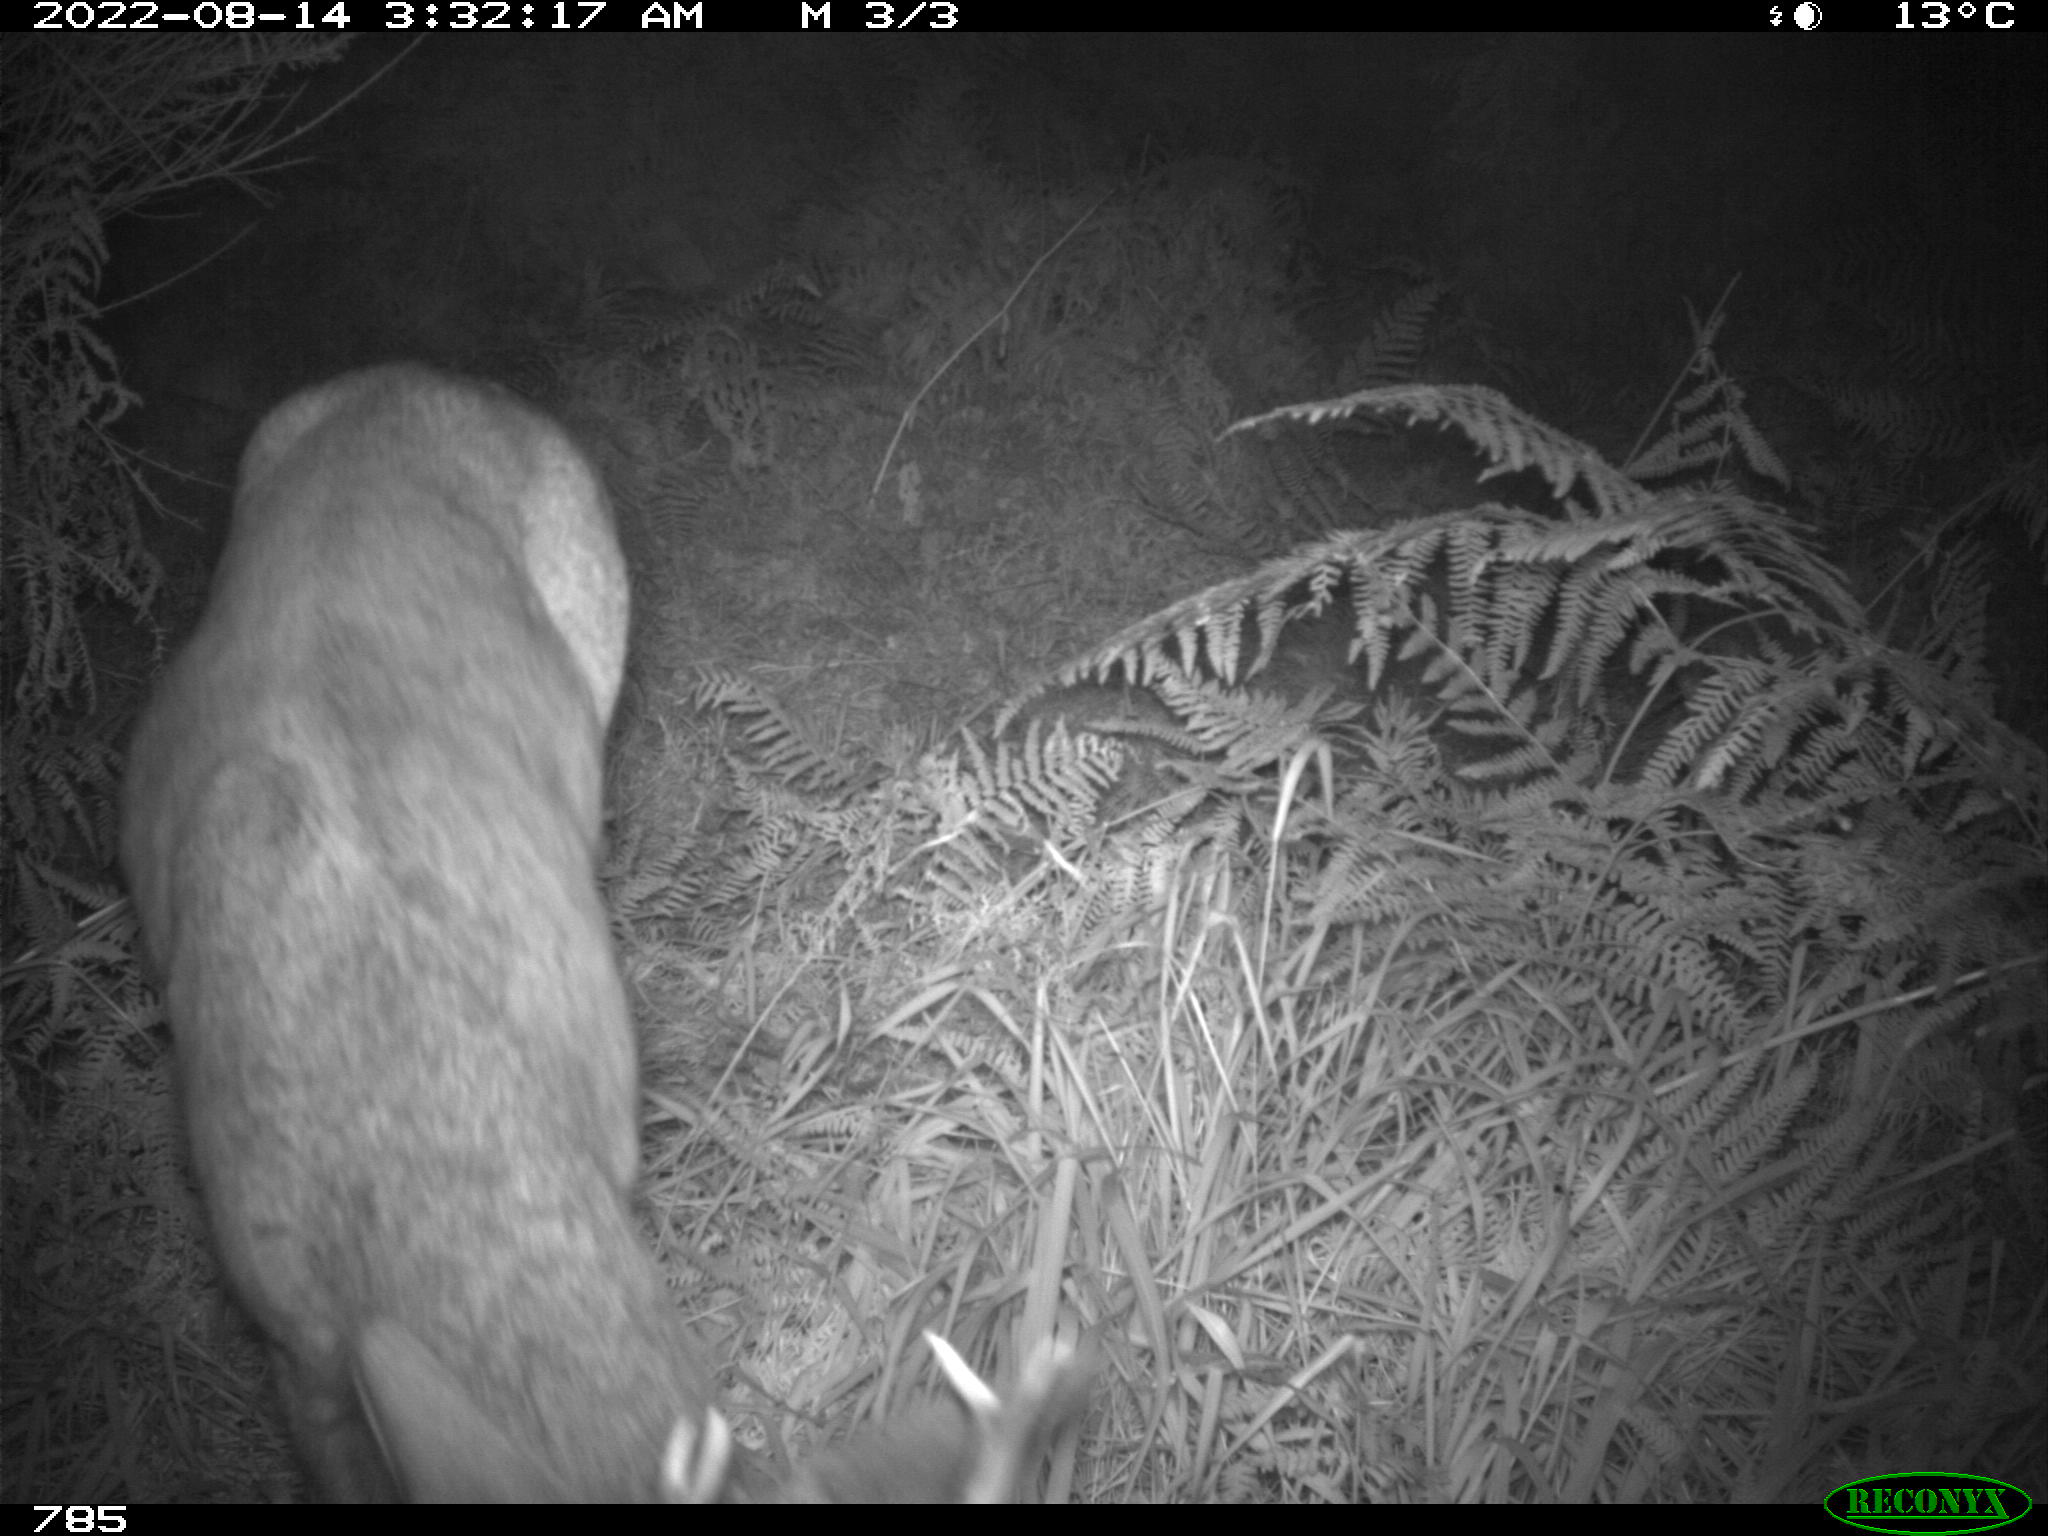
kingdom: Animalia
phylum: Chordata
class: Mammalia
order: Artiodactyla
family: Cervidae
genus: Capreolus
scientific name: Capreolus capreolus
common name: Western roe deer
